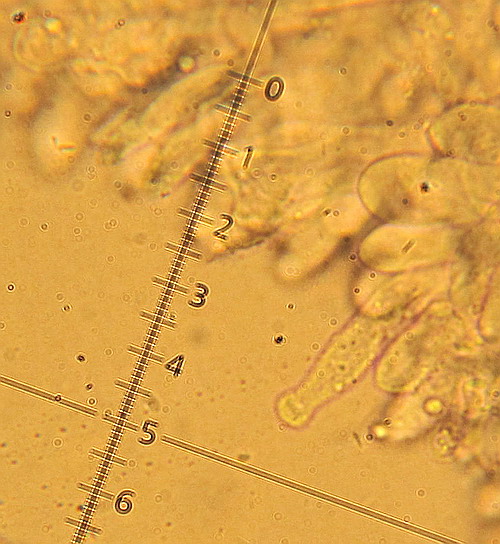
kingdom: Fungi
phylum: Basidiomycota
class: Agaricomycetes
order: Agaricales
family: Physalacriaceae
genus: Rhizomarasmius
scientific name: Rhizomarasmius setosus
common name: bøgeblads-bruskhat
